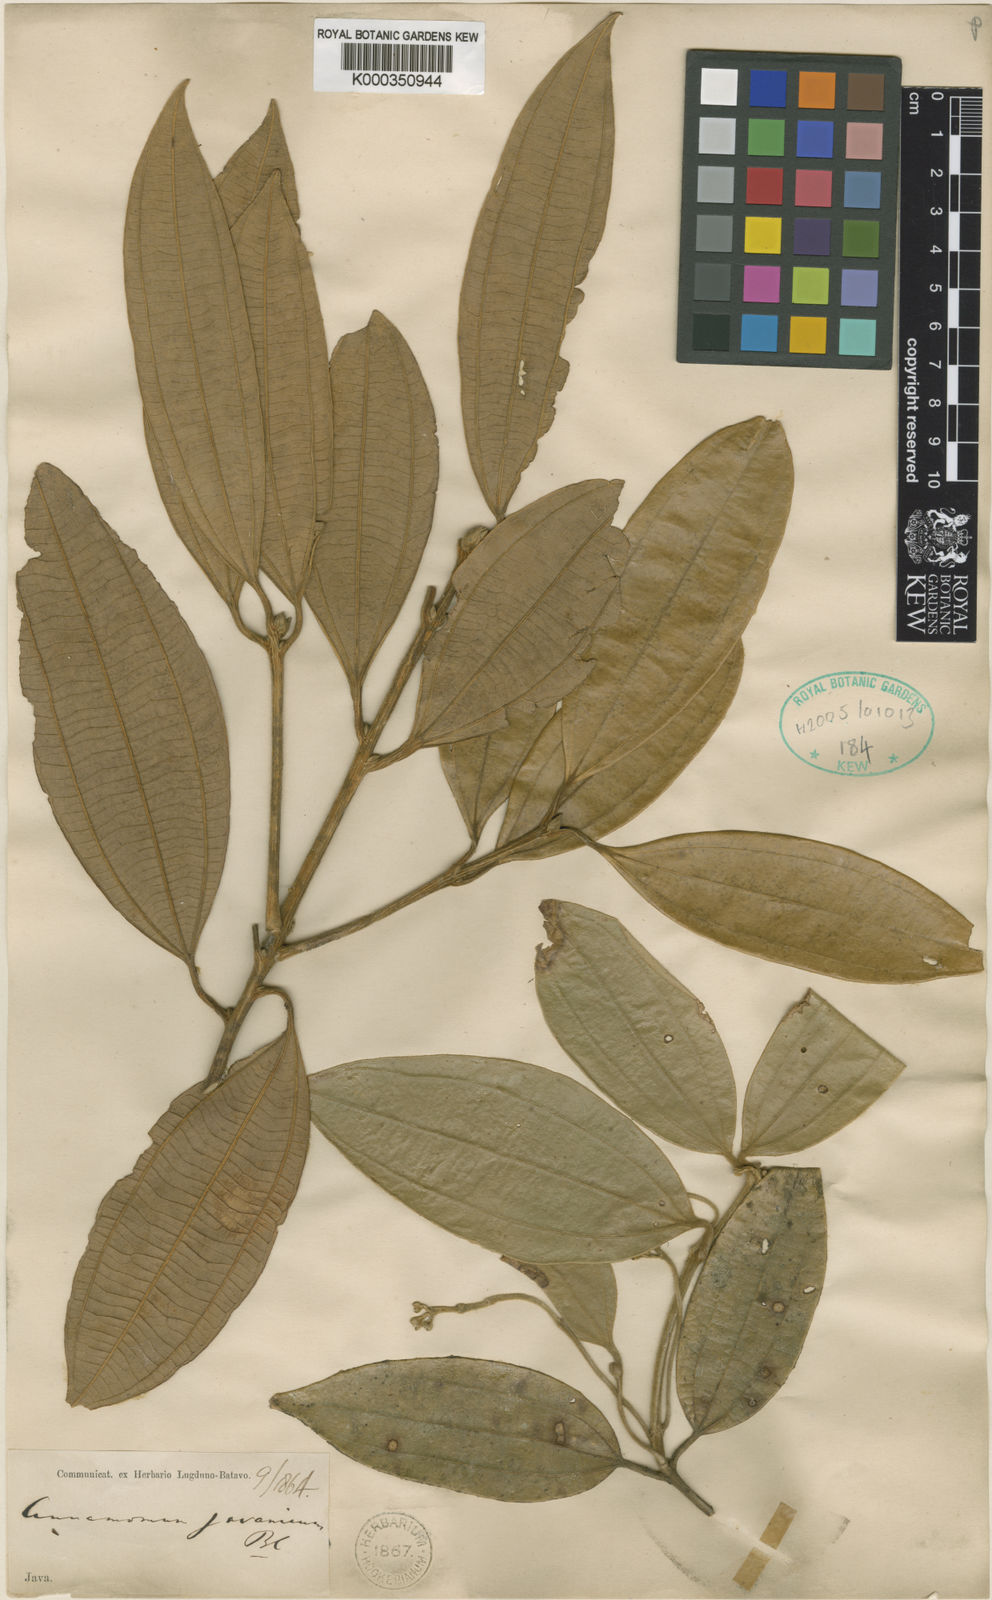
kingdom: Plantae
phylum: Tracheophyta
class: Magnoliopsida
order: Laurales
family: Lauraceae
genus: Cinnamomum
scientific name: Cinnamomum javanicum
